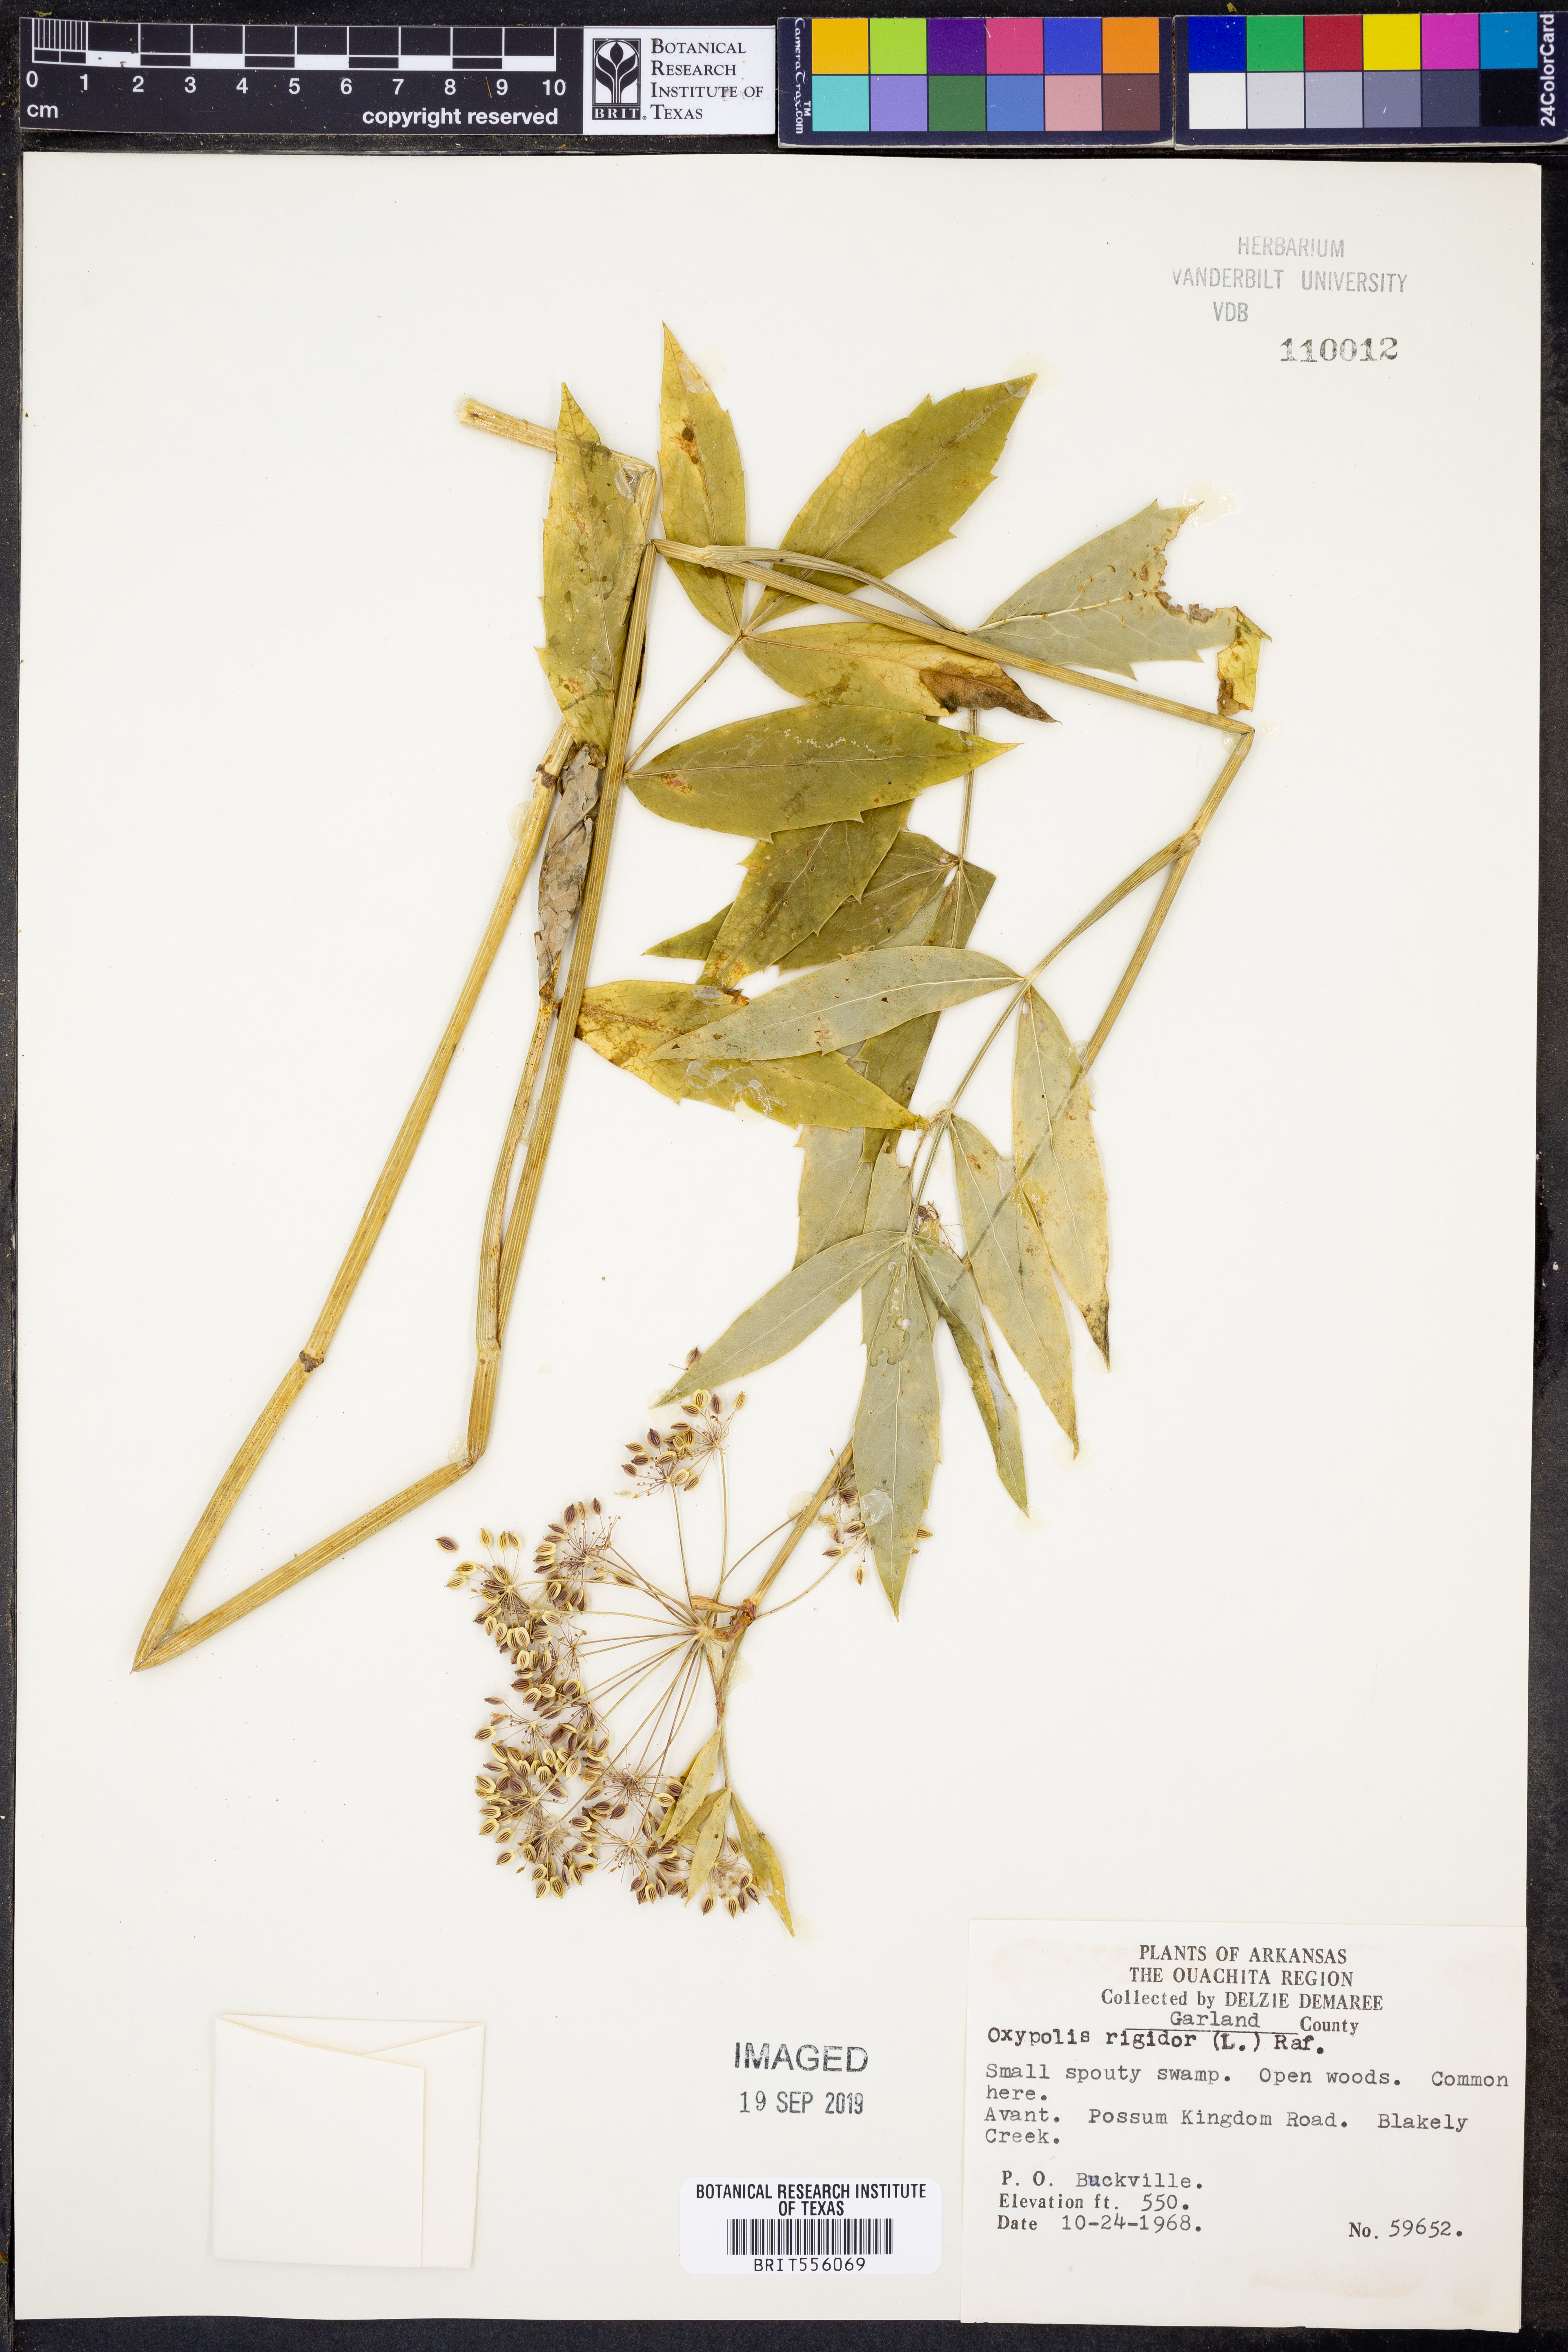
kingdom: Plantae
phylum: Tracheophyta
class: Magnoliopsida
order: Apiales
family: Apiaceae
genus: Oxypolis
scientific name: Oxypolis rigidior
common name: Cowbane
